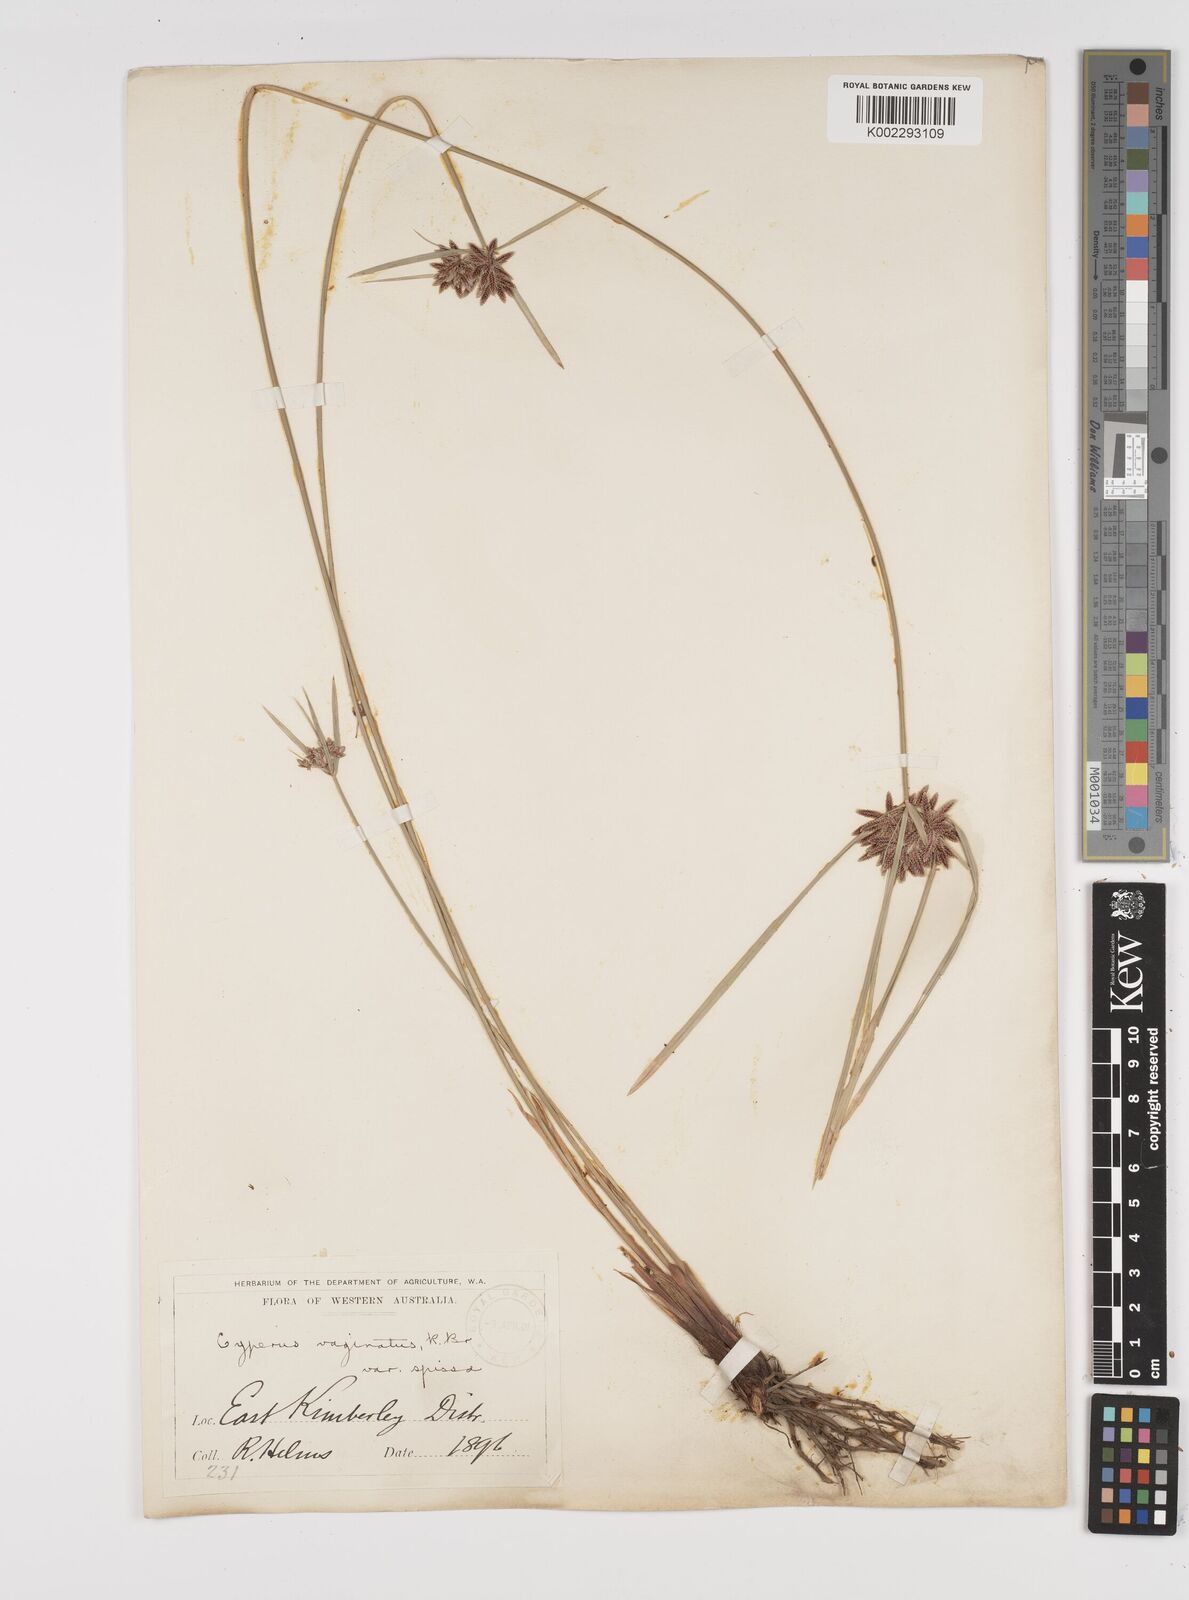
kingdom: Plantae
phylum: Tracheophyta
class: Liliopsida
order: Poales
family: Cyperaceae
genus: Cyperus
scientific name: Cyperus vaginatus
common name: Stiff-leaved flat-sedge
